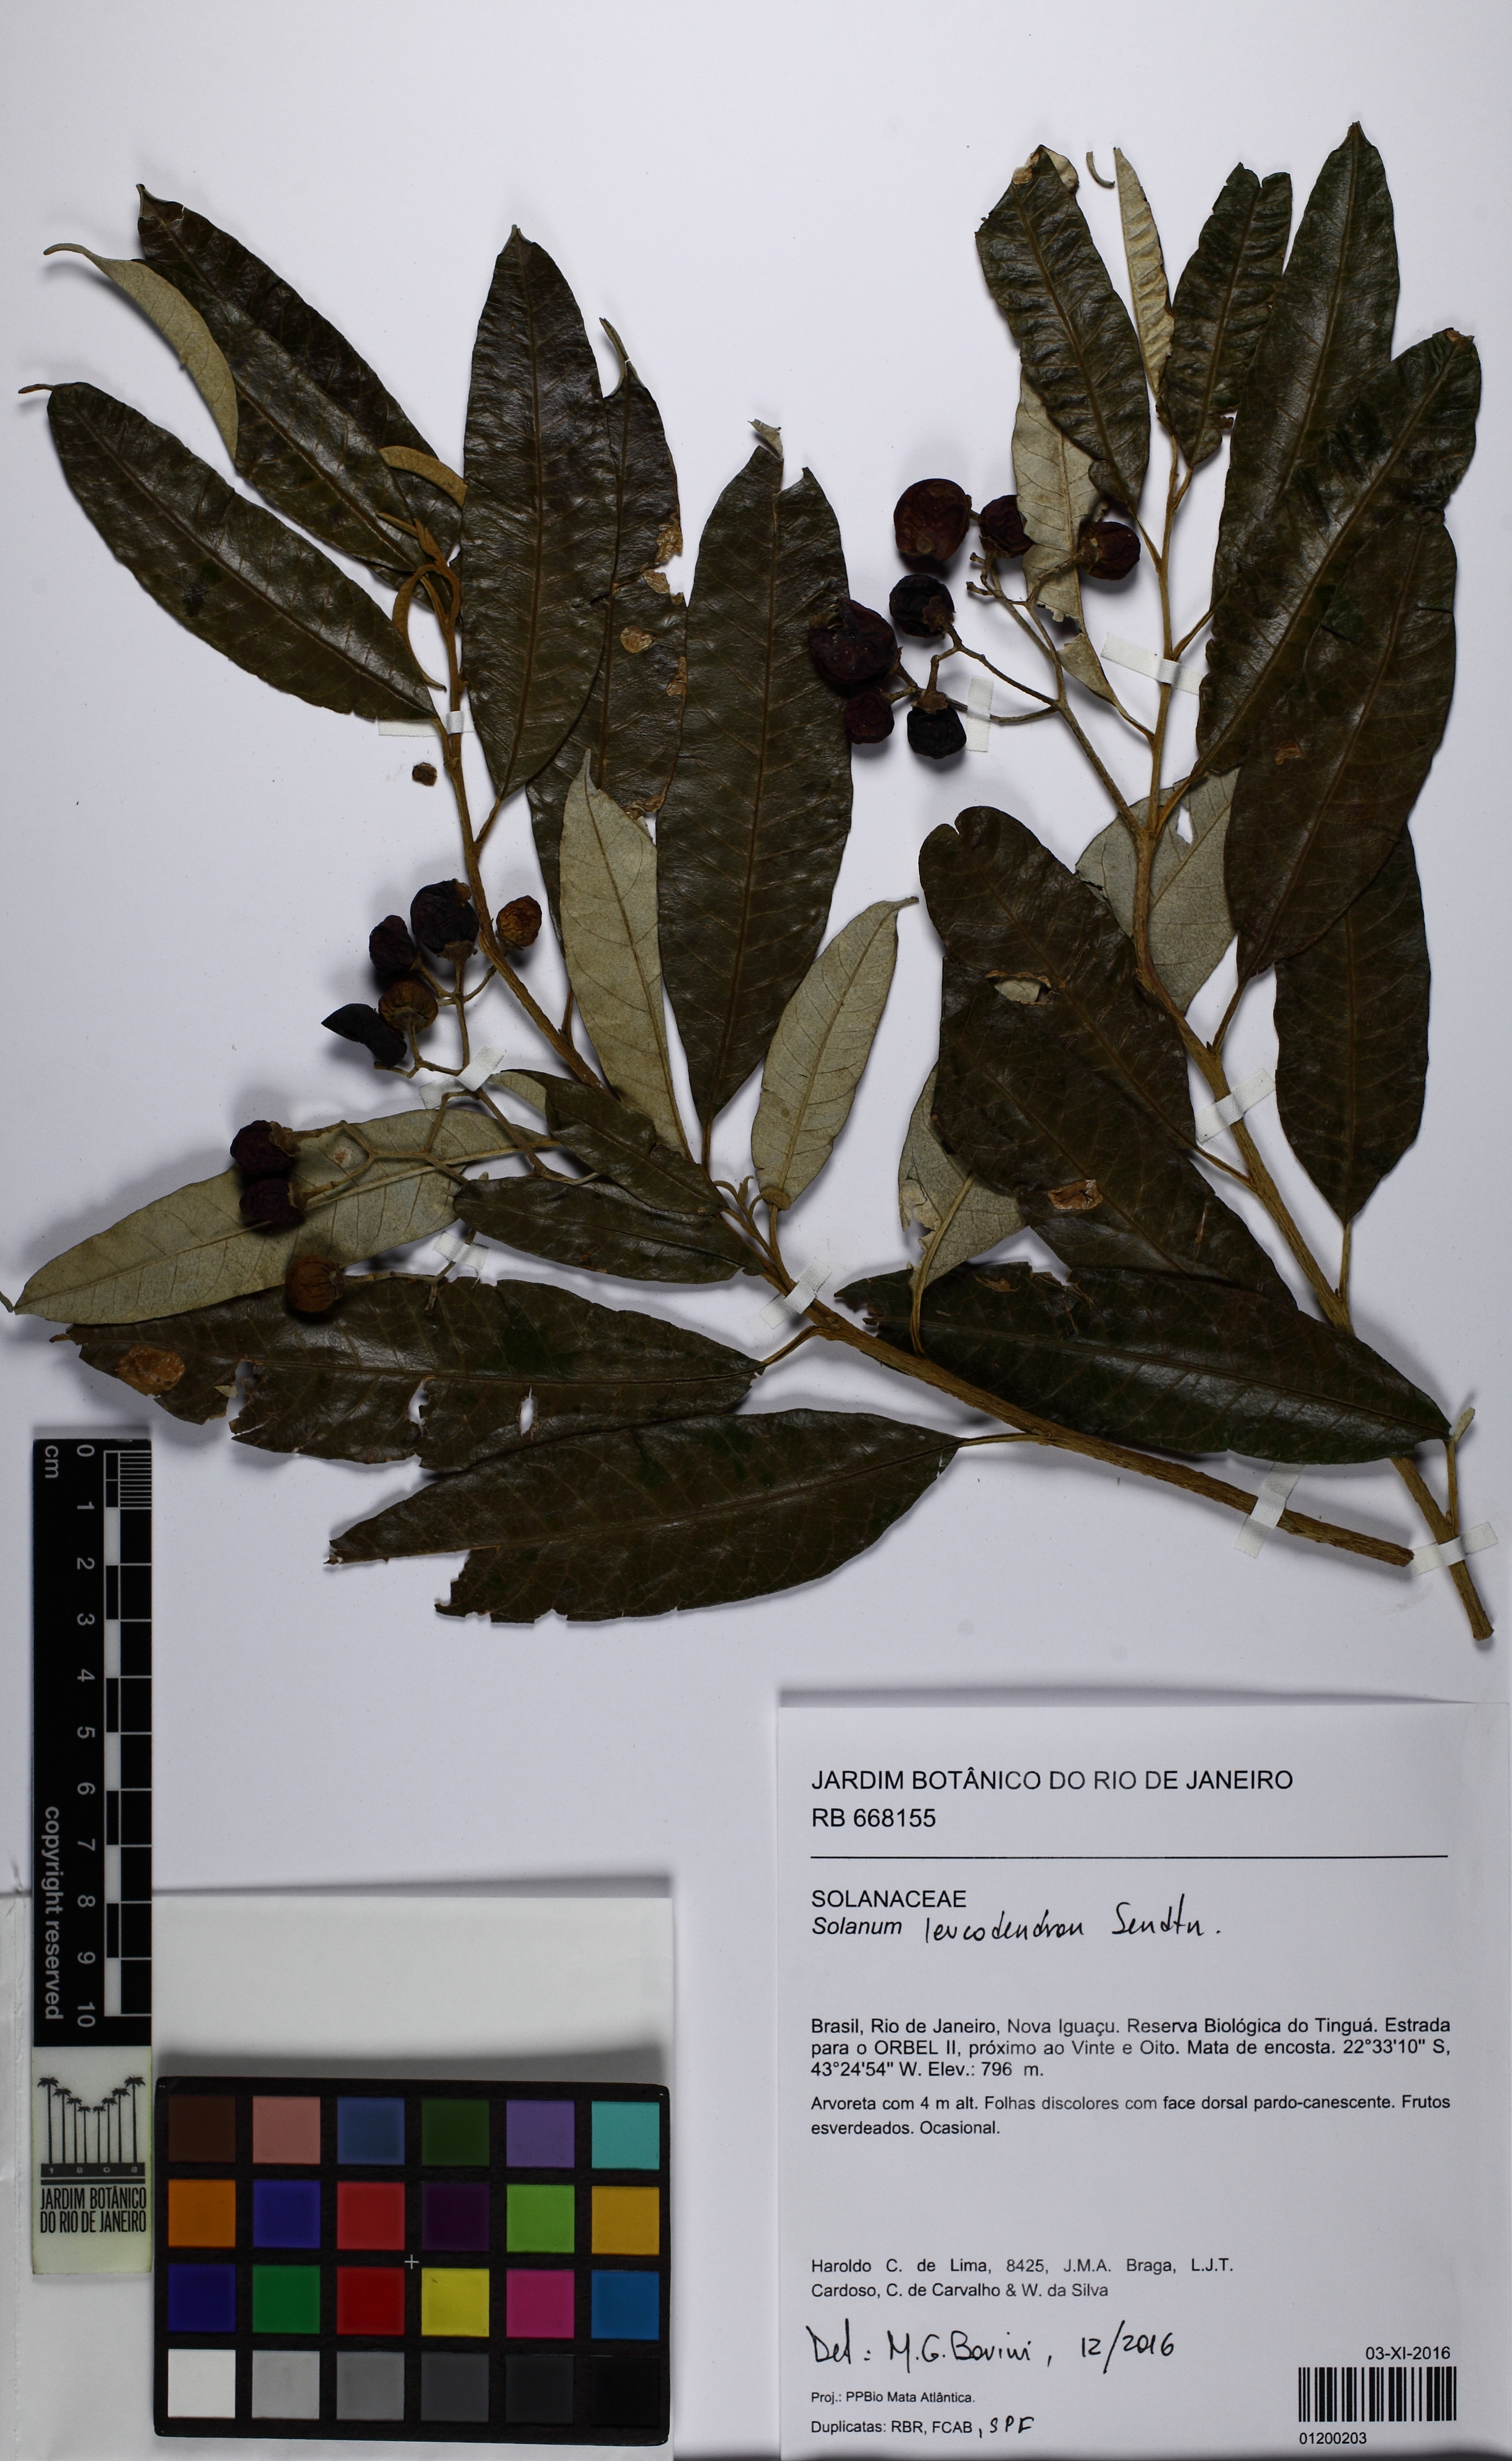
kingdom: Plantae
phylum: Tracheophyta
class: Magnoliopsida
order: Solanales
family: Solanaceae
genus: Solanum
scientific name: Solanum leucodendron
